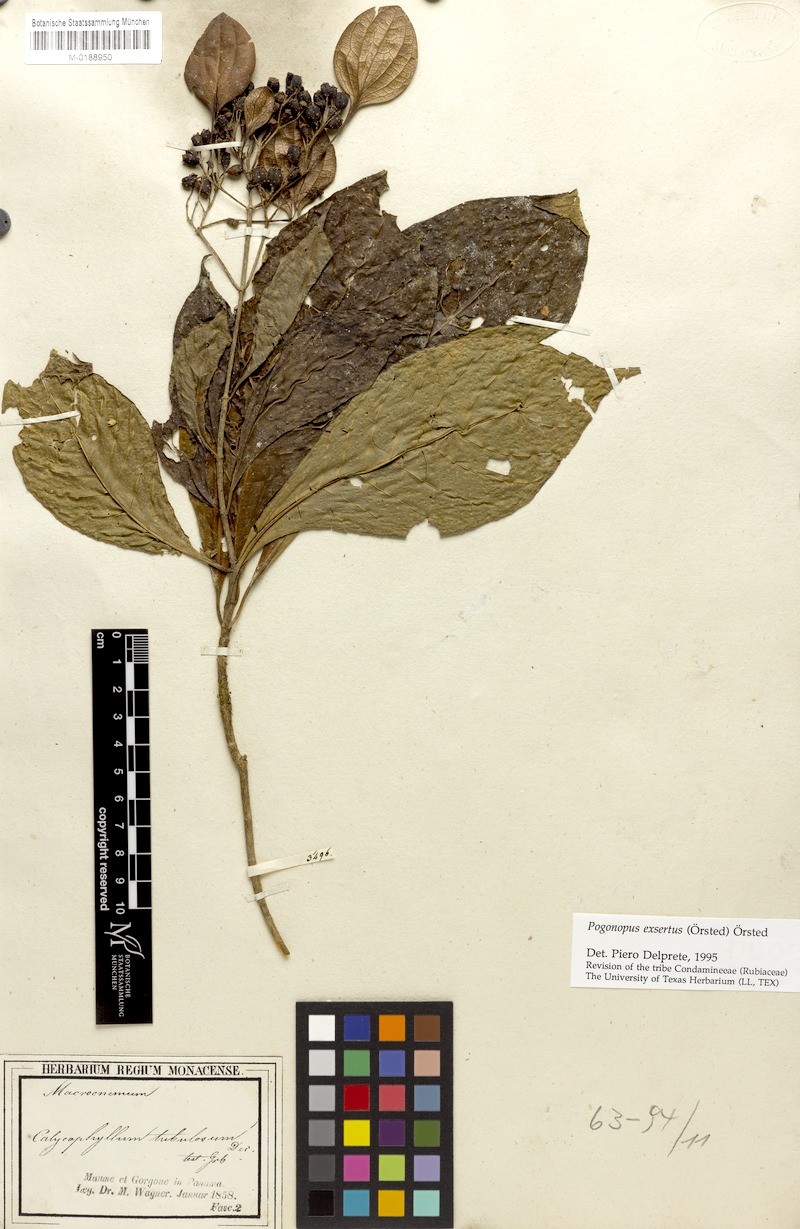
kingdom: Plantae
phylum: Tracheophyta
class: Magnoliopsida
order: Gentianales
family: Rubiaceae
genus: Pogonopus
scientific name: Pogonopus exsertus
